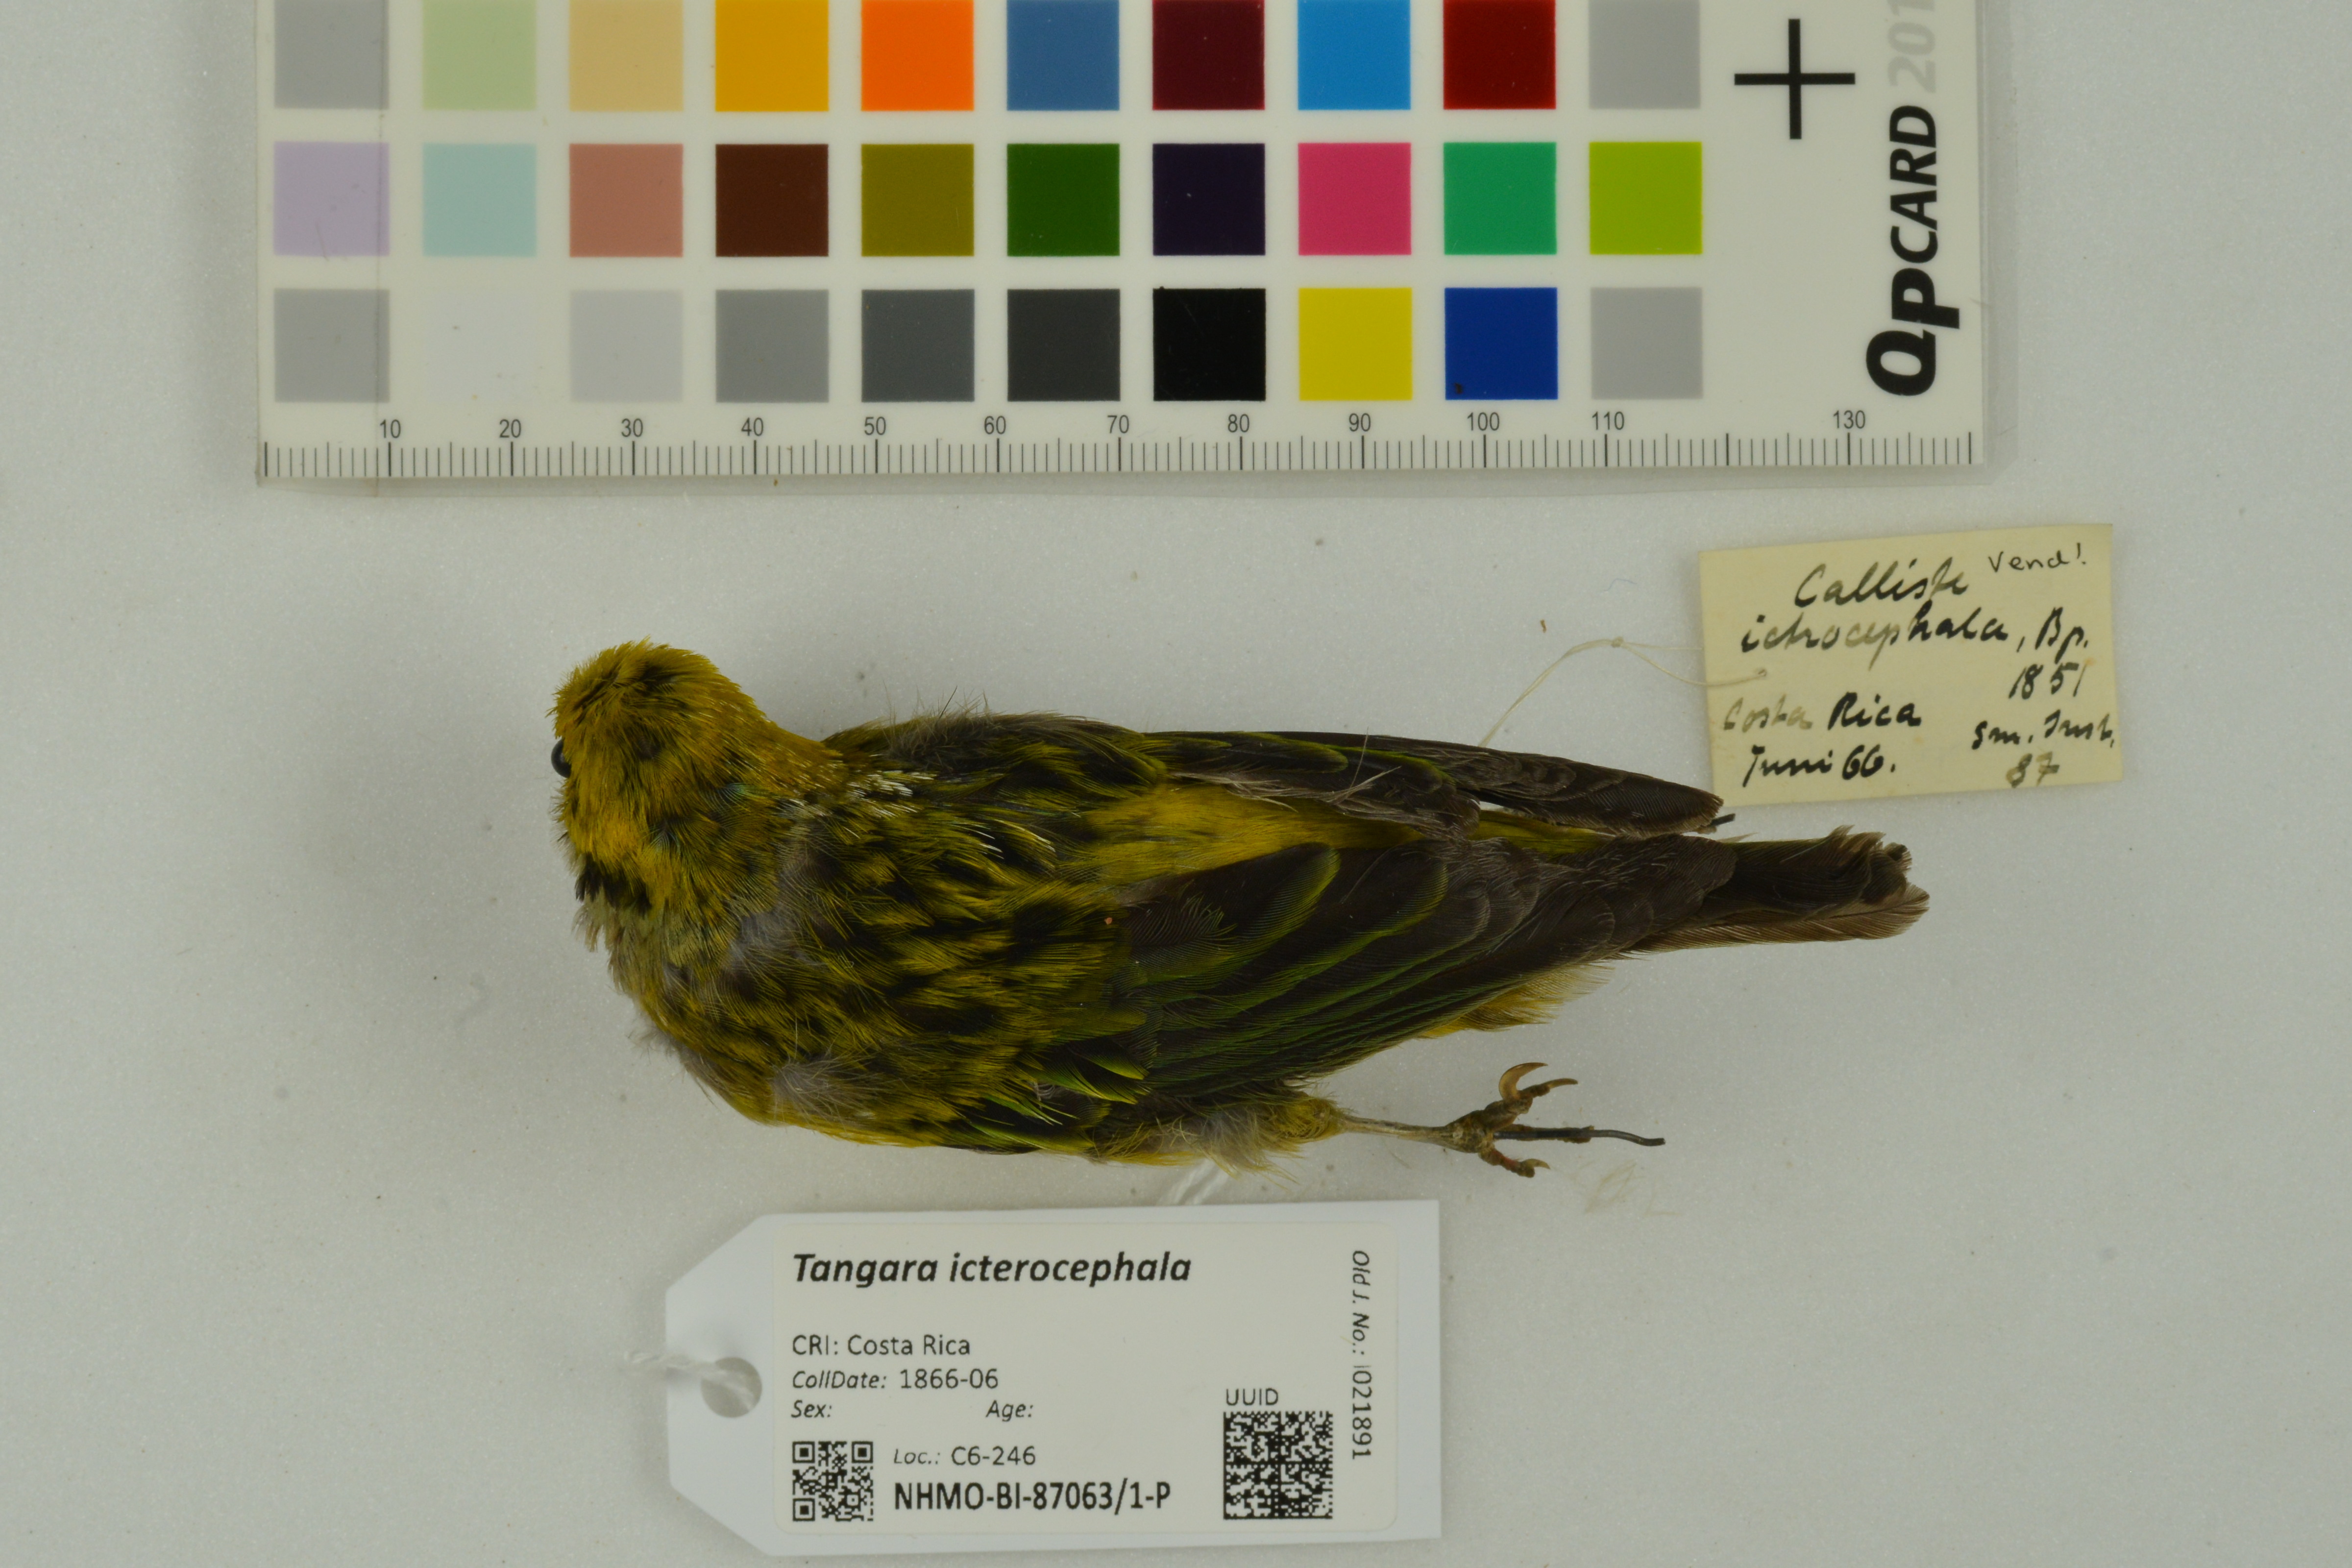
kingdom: Animalia
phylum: Chordata
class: Aves
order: Passeriformes
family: Thraupidae
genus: Tangara
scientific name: Tangara icterocephala
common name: Silver-throated tanager
